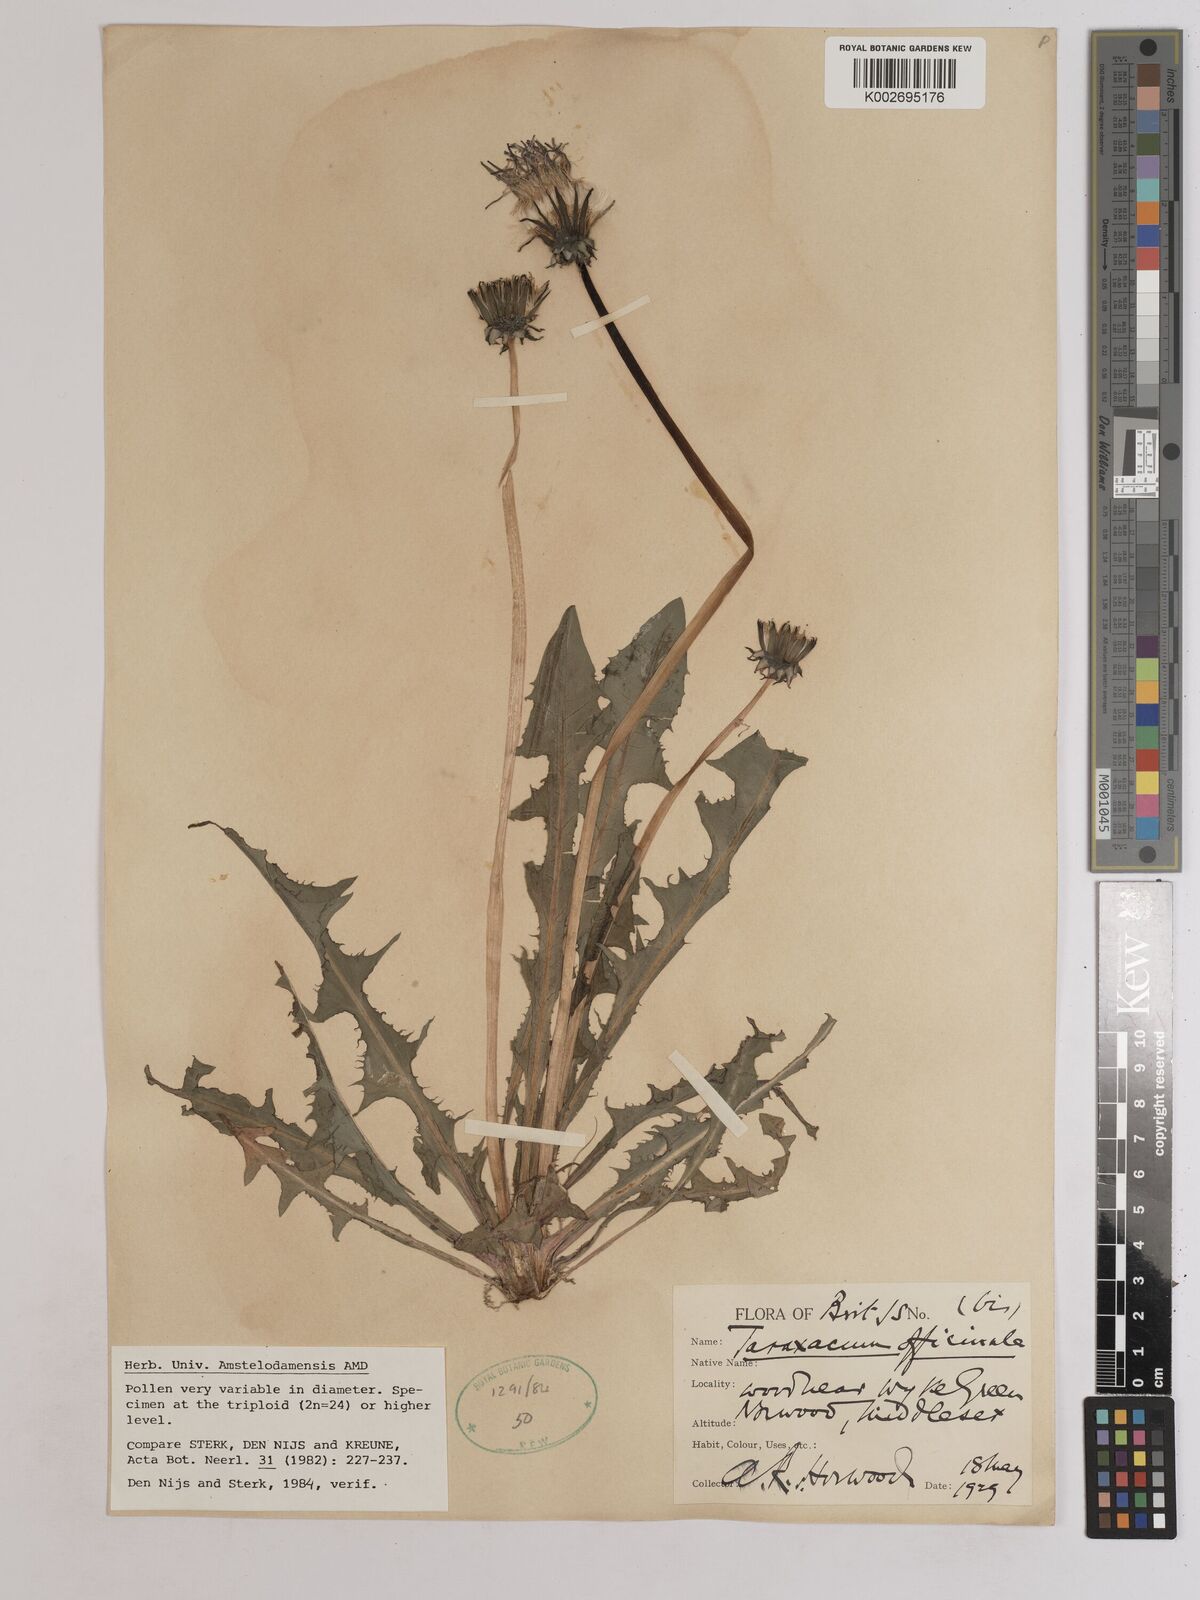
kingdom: Plantae
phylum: Tracheophyta
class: Magnoliopsida
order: Asterales
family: Asteraceae
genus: Taraxacum
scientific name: Taraxacum officinale
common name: Common dandelion
